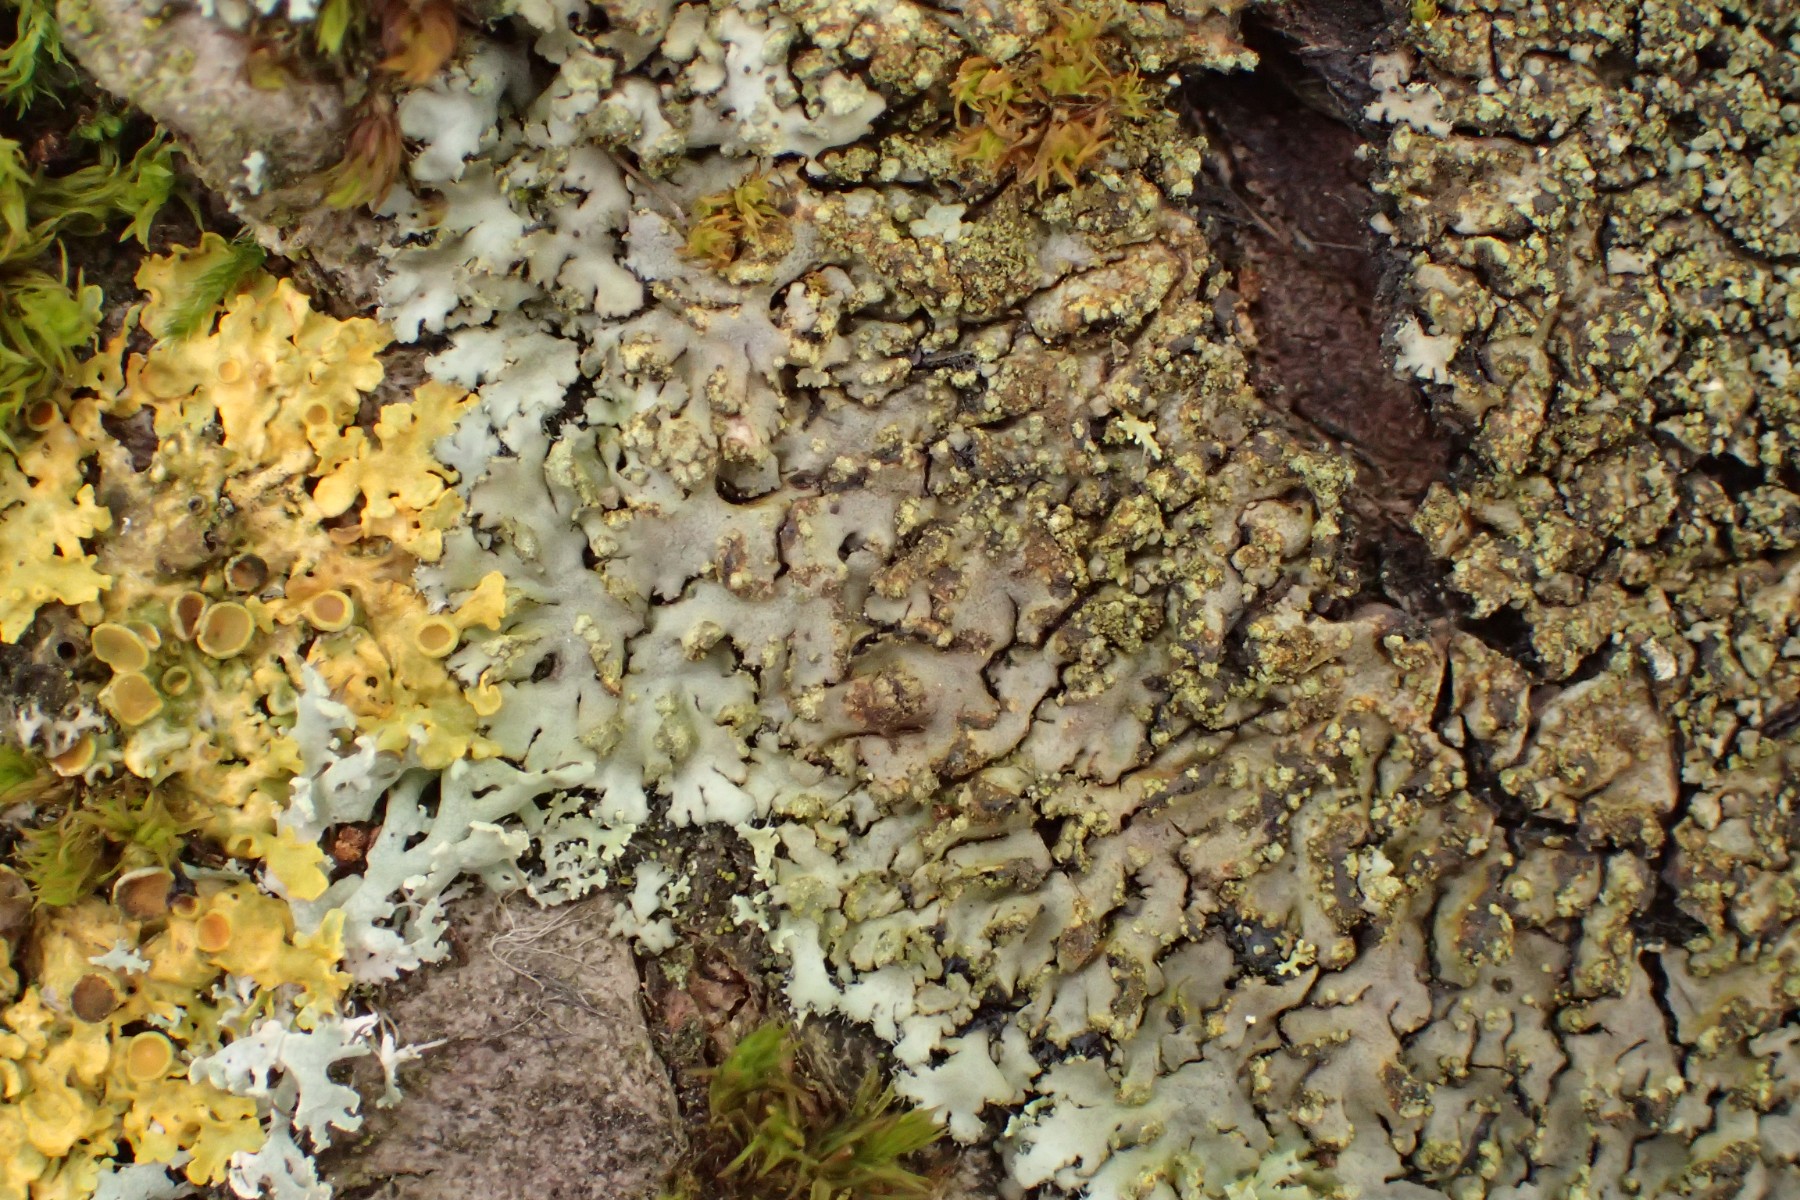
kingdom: Fungi
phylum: Ascomycota
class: Lecanoromycetes
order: Caliciales
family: Physciaceae
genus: Phaeophyscia
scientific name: Phaeophyscia endophoenicea
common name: skygge-rosetlav
